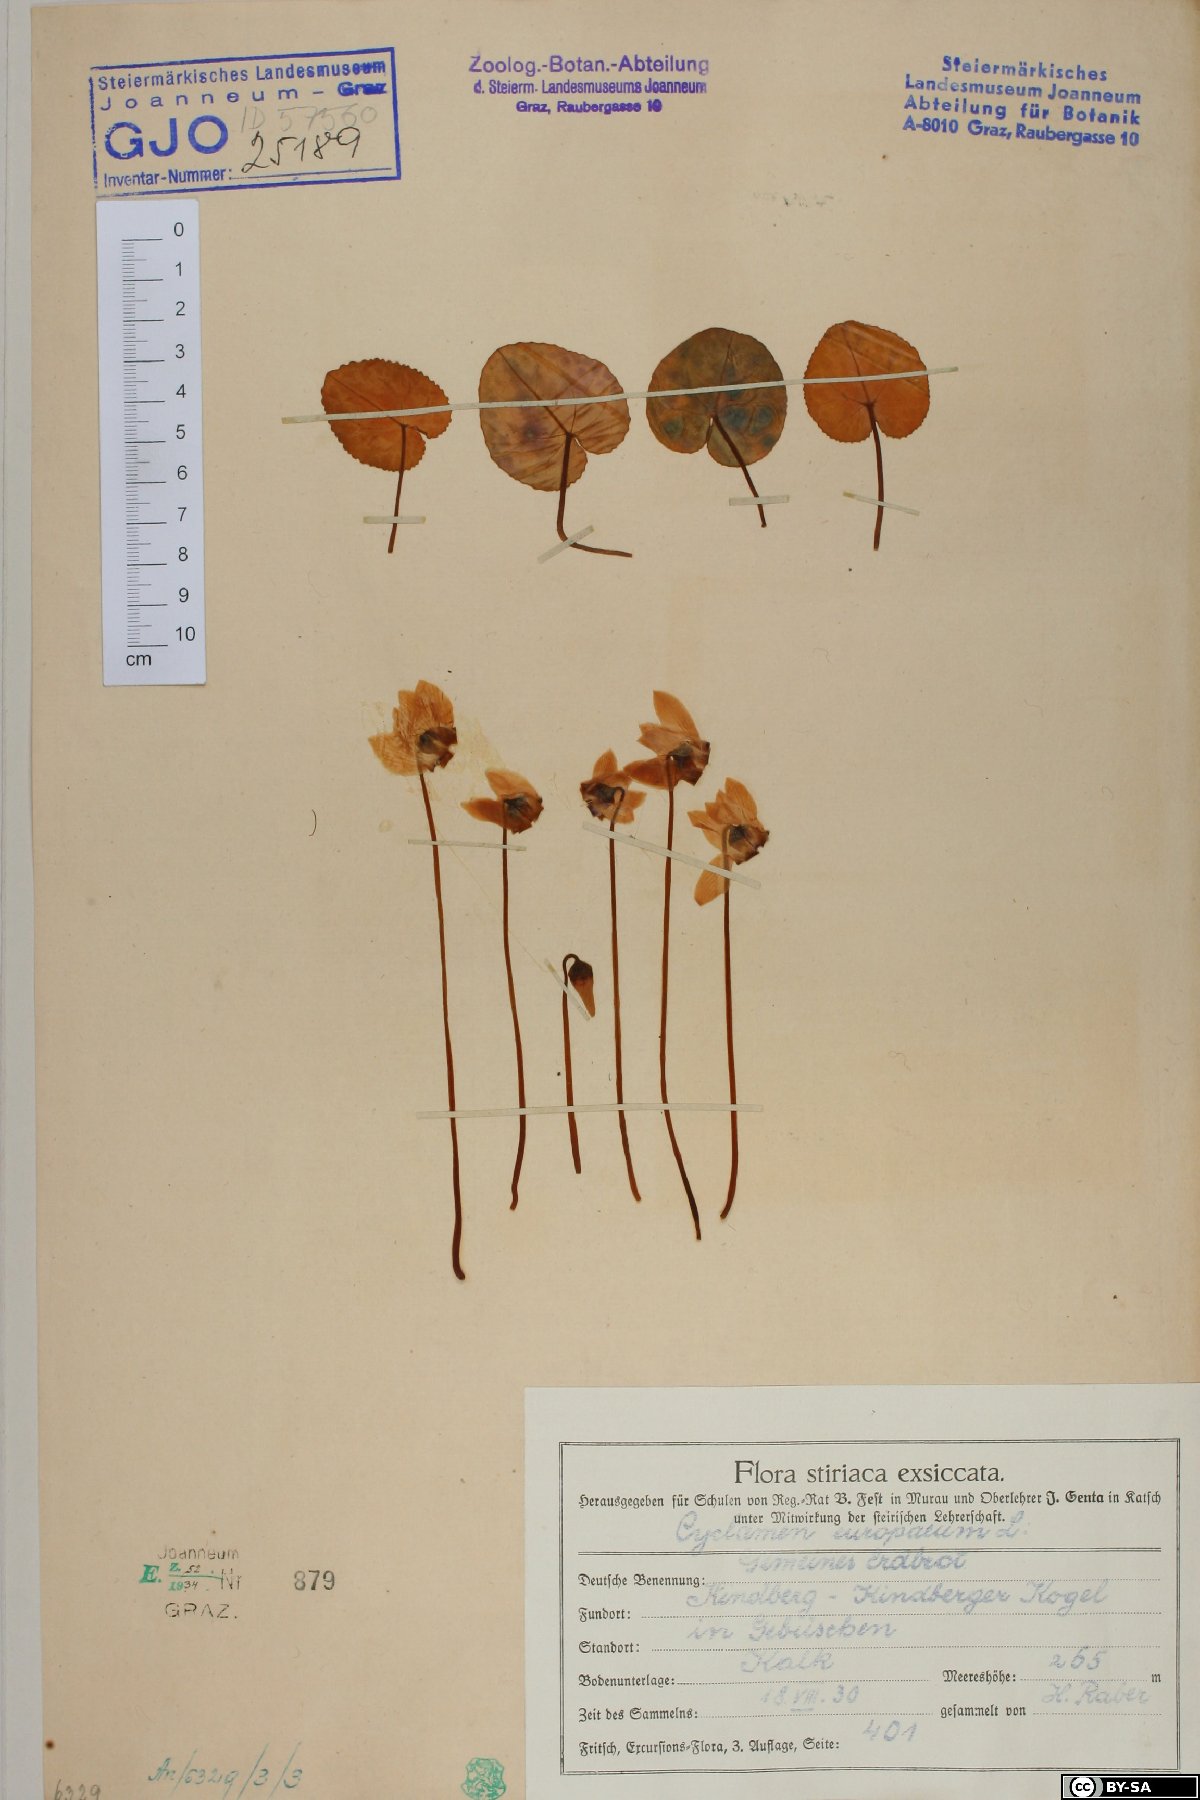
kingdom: Plantae
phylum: Tracheophyta
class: Magnoliopsida
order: Ericales
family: Primulaceae
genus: Cyclamen
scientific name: Cyclamen purpurascens
